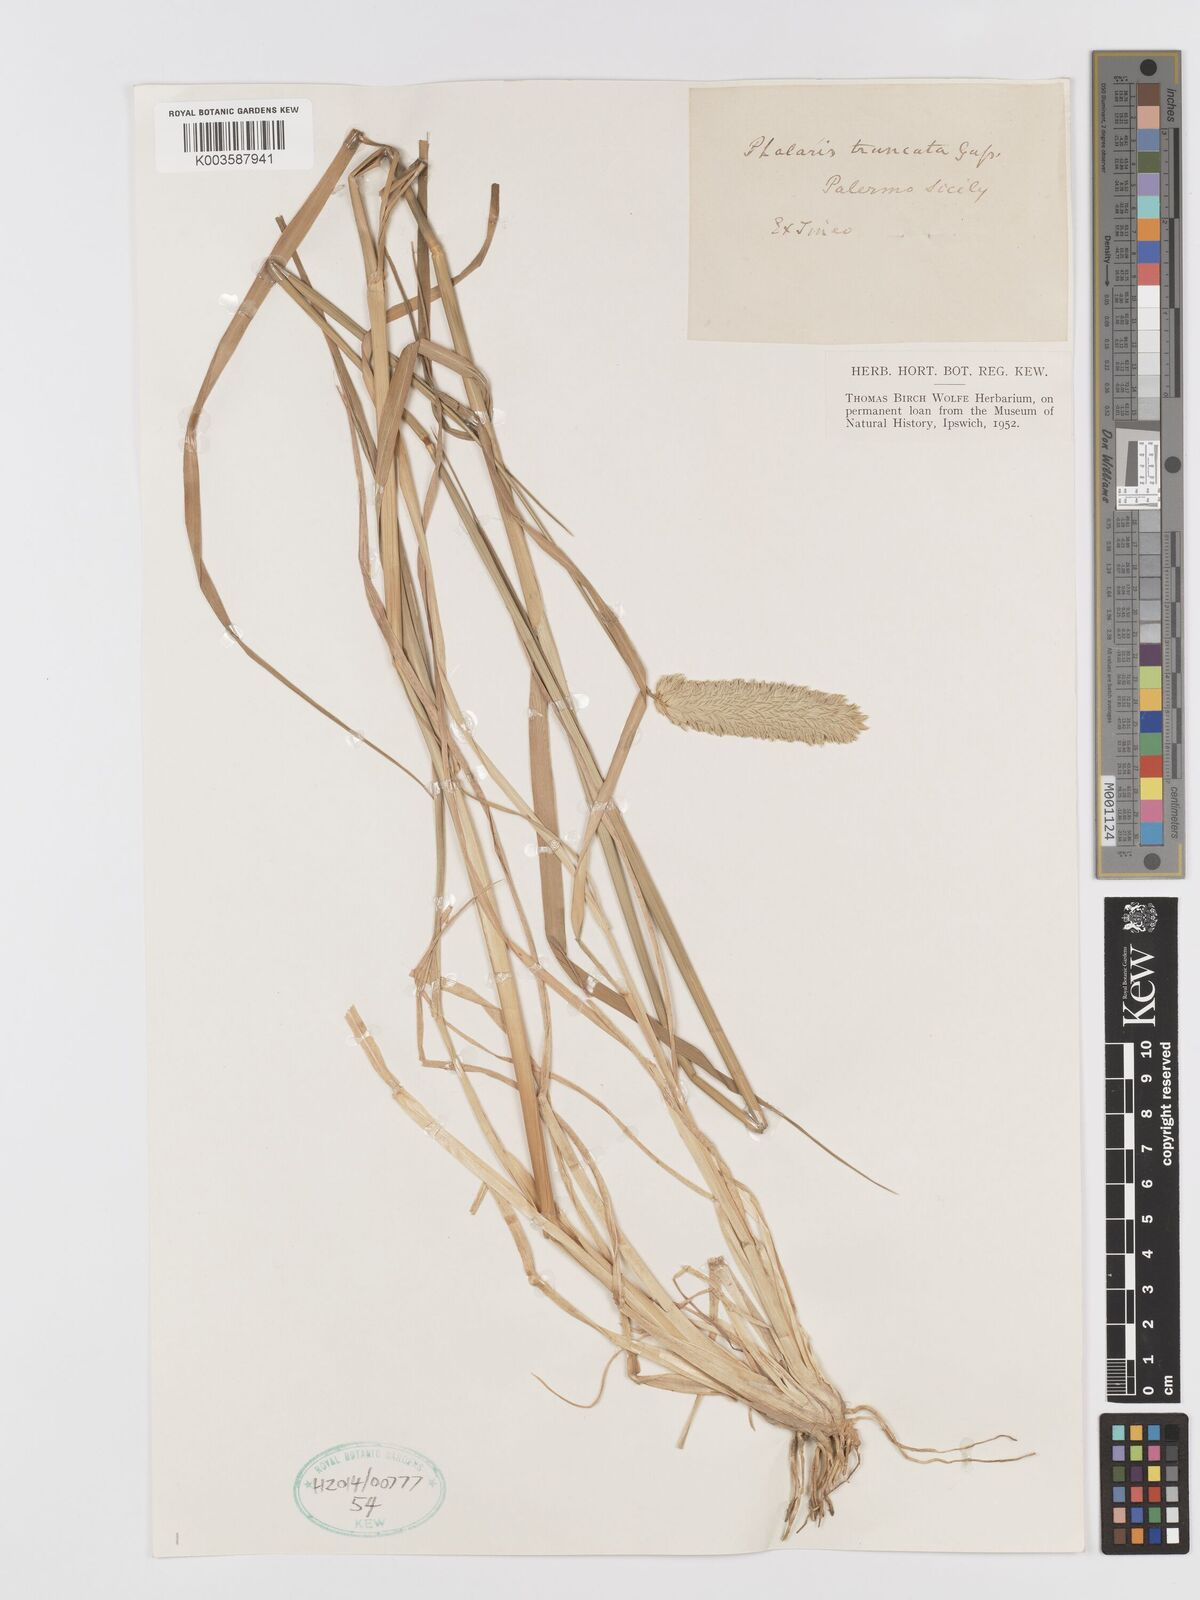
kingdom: Plantae
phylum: Tracheophyta
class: Liliopsida
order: Poales
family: Poaceae
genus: Phalaris
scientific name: Phalaris truncata
